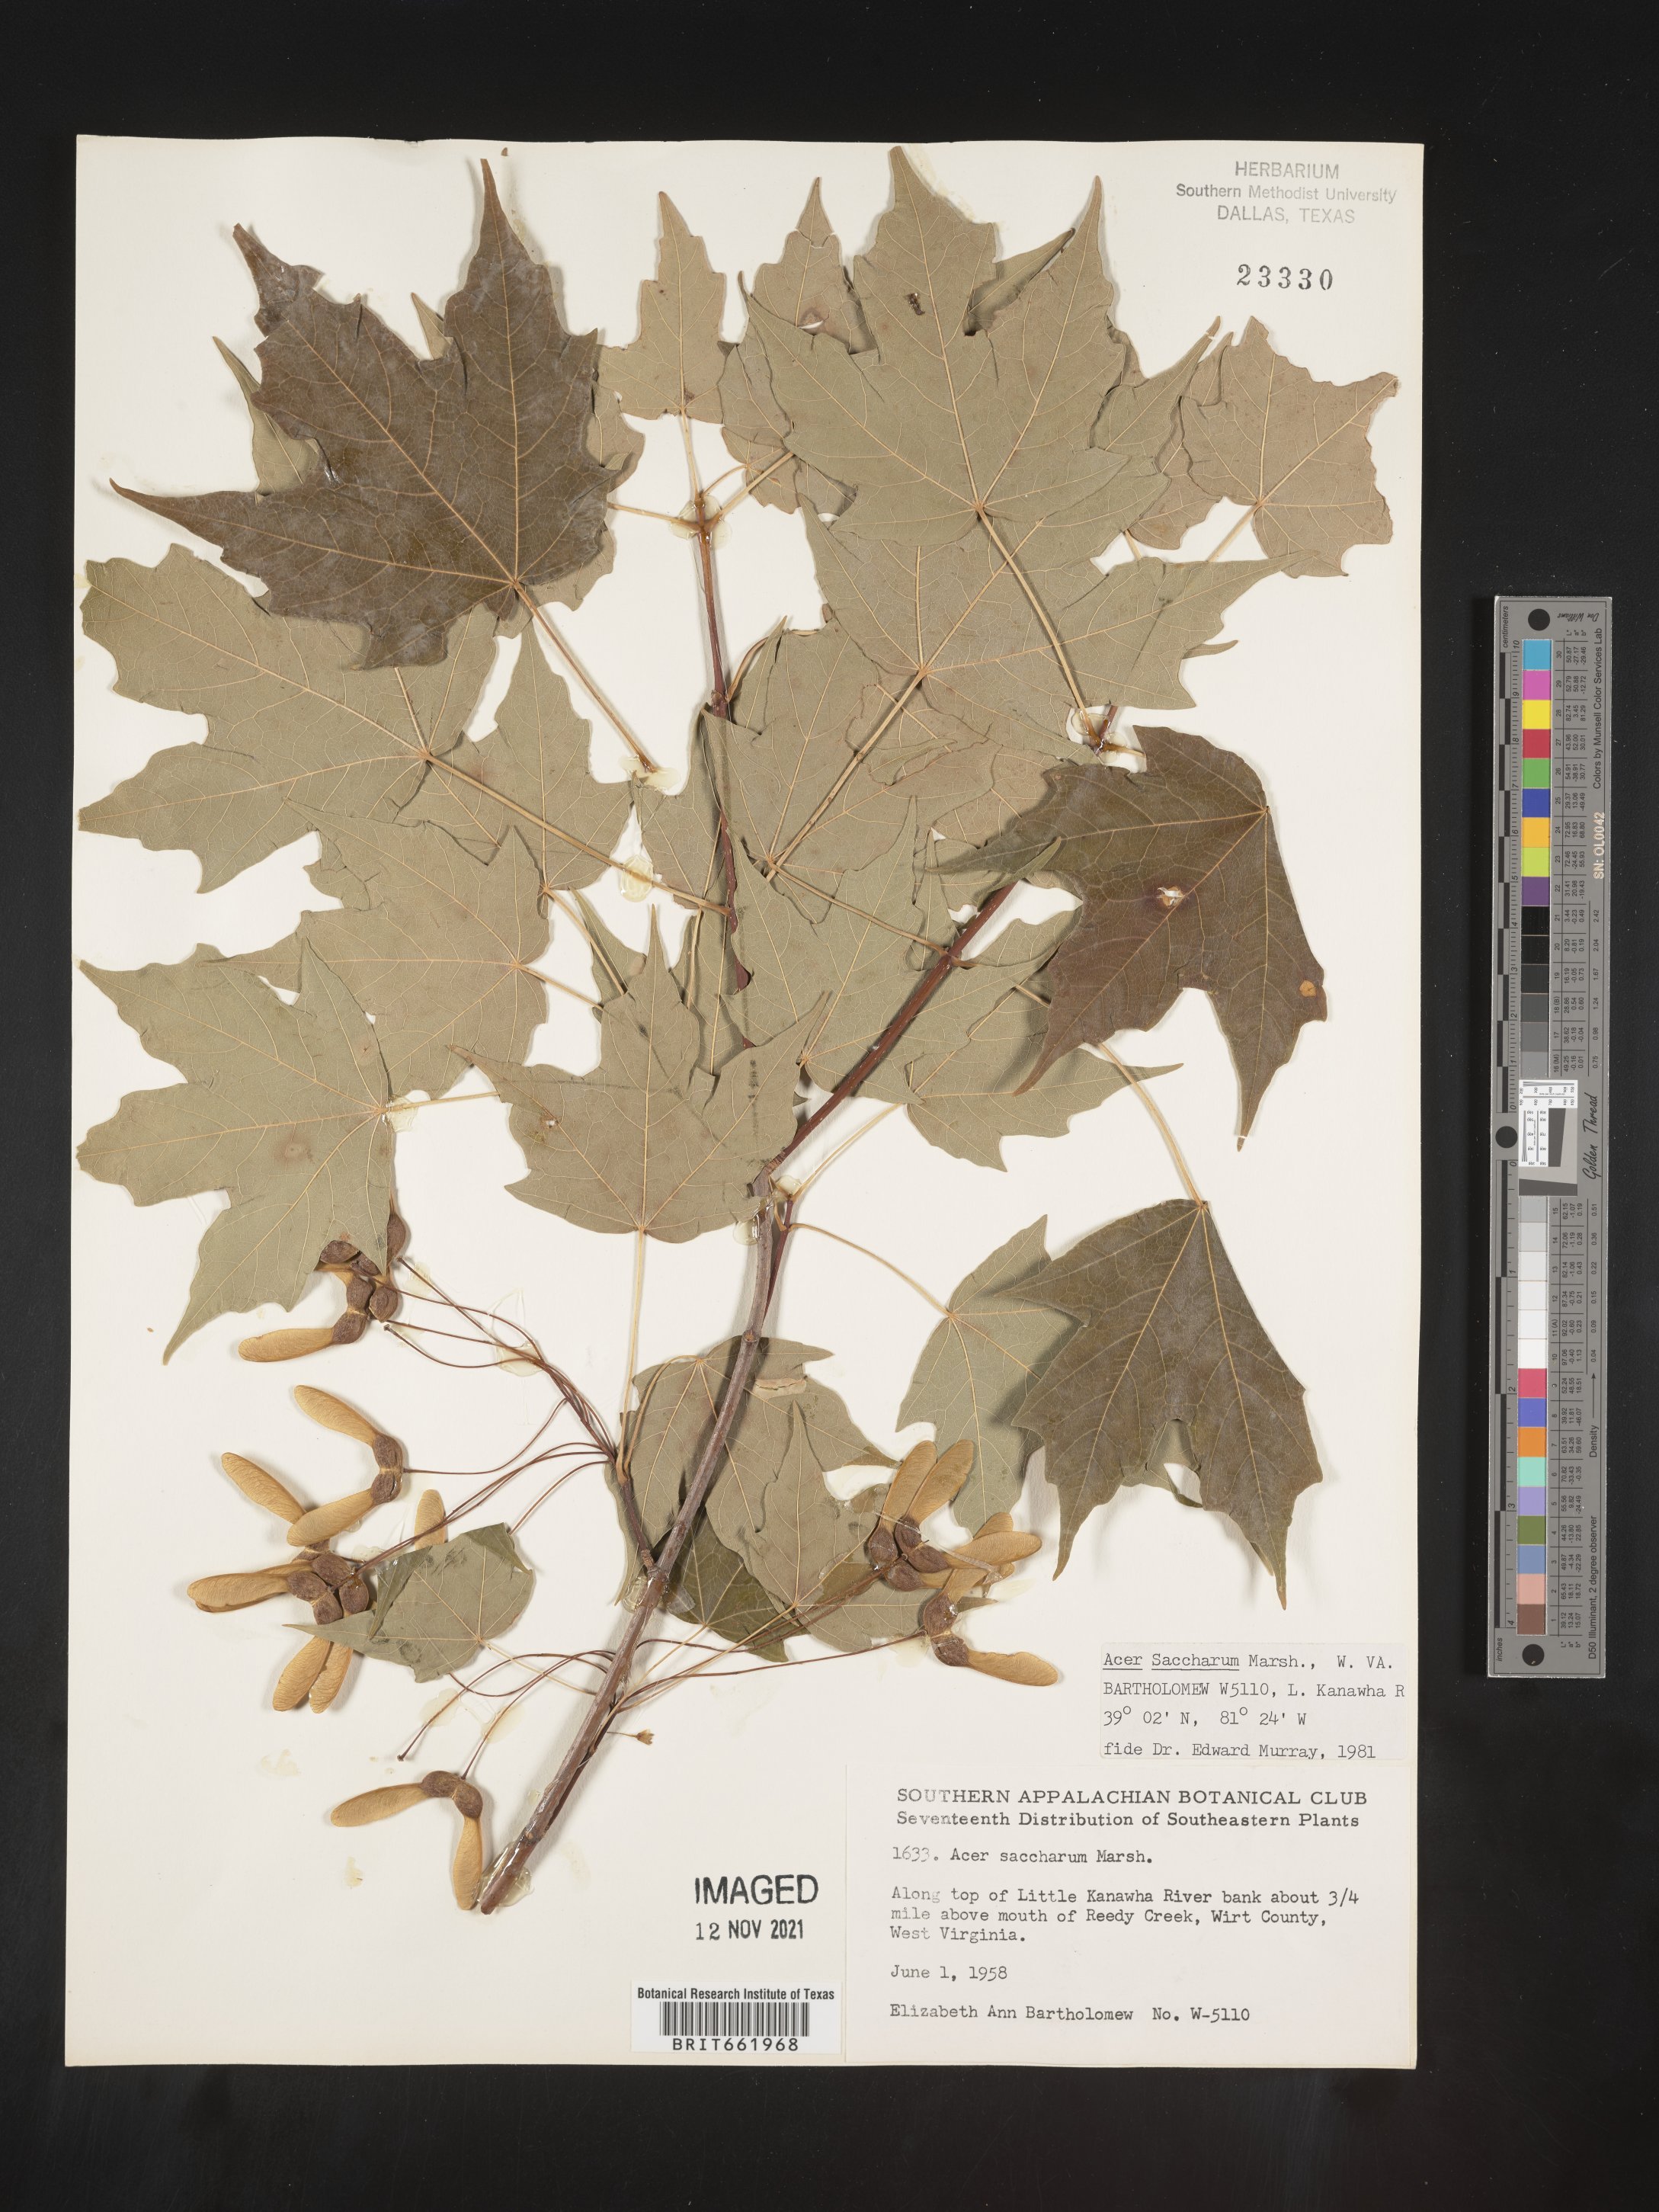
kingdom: Plantae
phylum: Tracheophyta
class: Magnoliopsida
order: Sapindales
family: Sapindaceae
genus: Acer
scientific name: Acer saccharum
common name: Sugar maple
